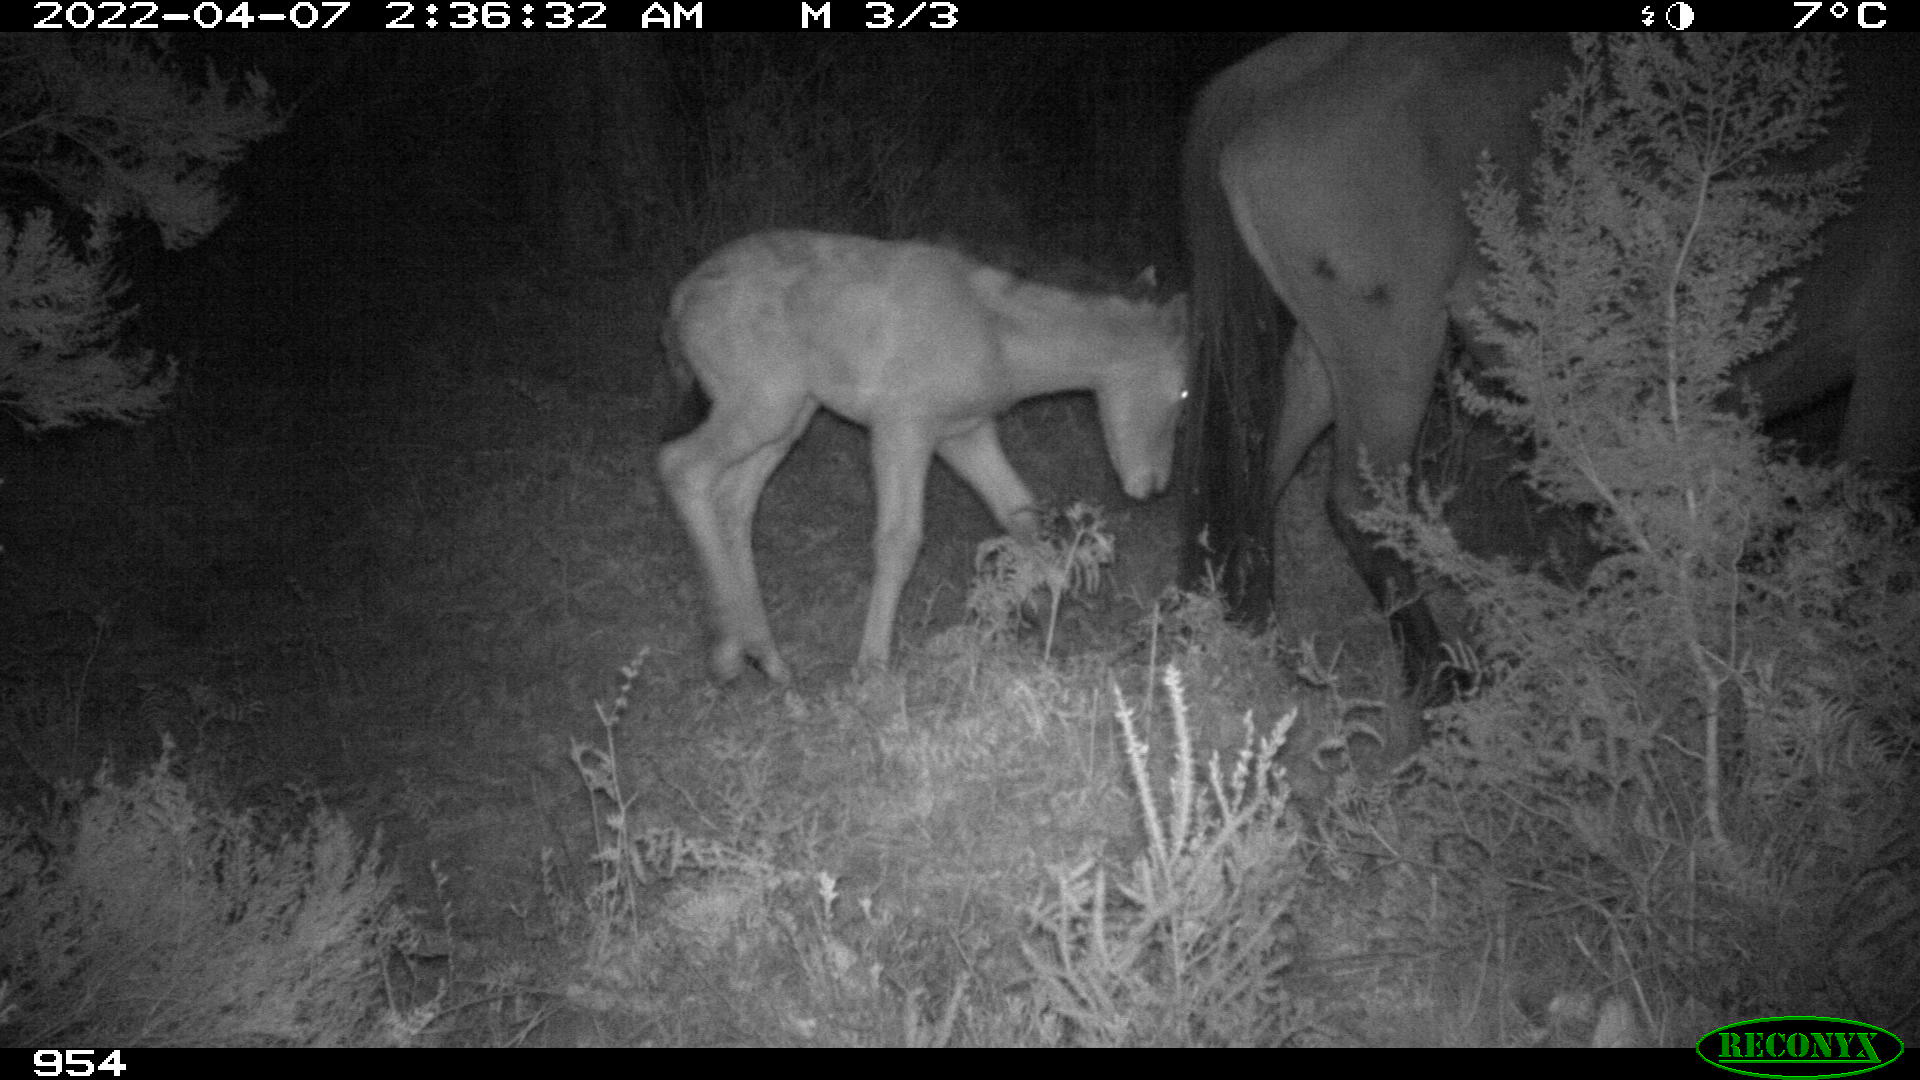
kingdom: Animalia
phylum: Chordata
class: Mammalia
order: Perissodactyla
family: Equidae
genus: Equus
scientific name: Equus caballus
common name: Horse
